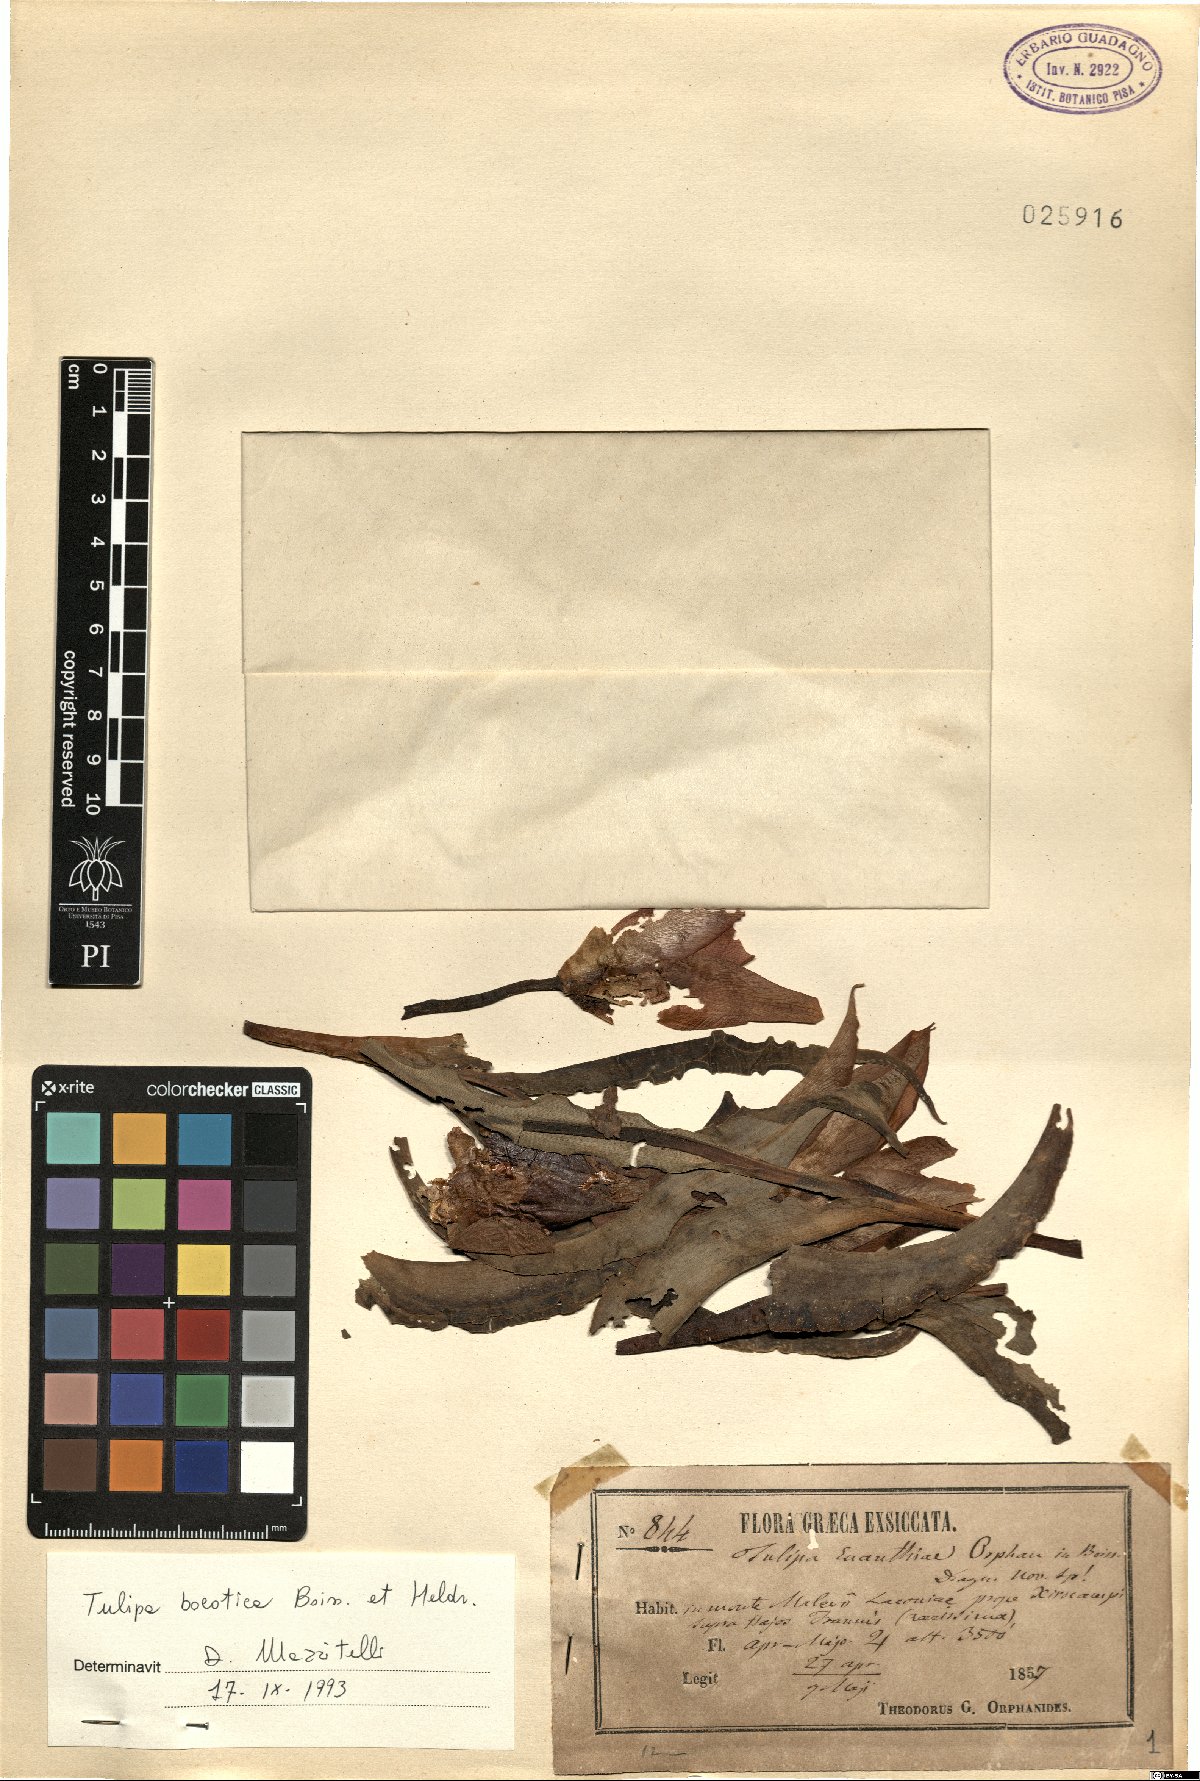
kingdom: Plantae
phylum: Tracheophyta
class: Liliopsida
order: Liliales
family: Liliaceae
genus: Tulipa
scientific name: Tulipa undulatifolia
